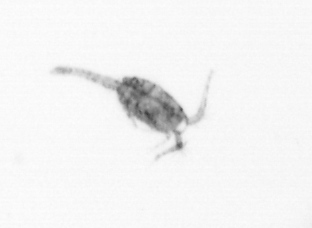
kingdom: Animalia
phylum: Arthropoda
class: Copepoda
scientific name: Copepoda
